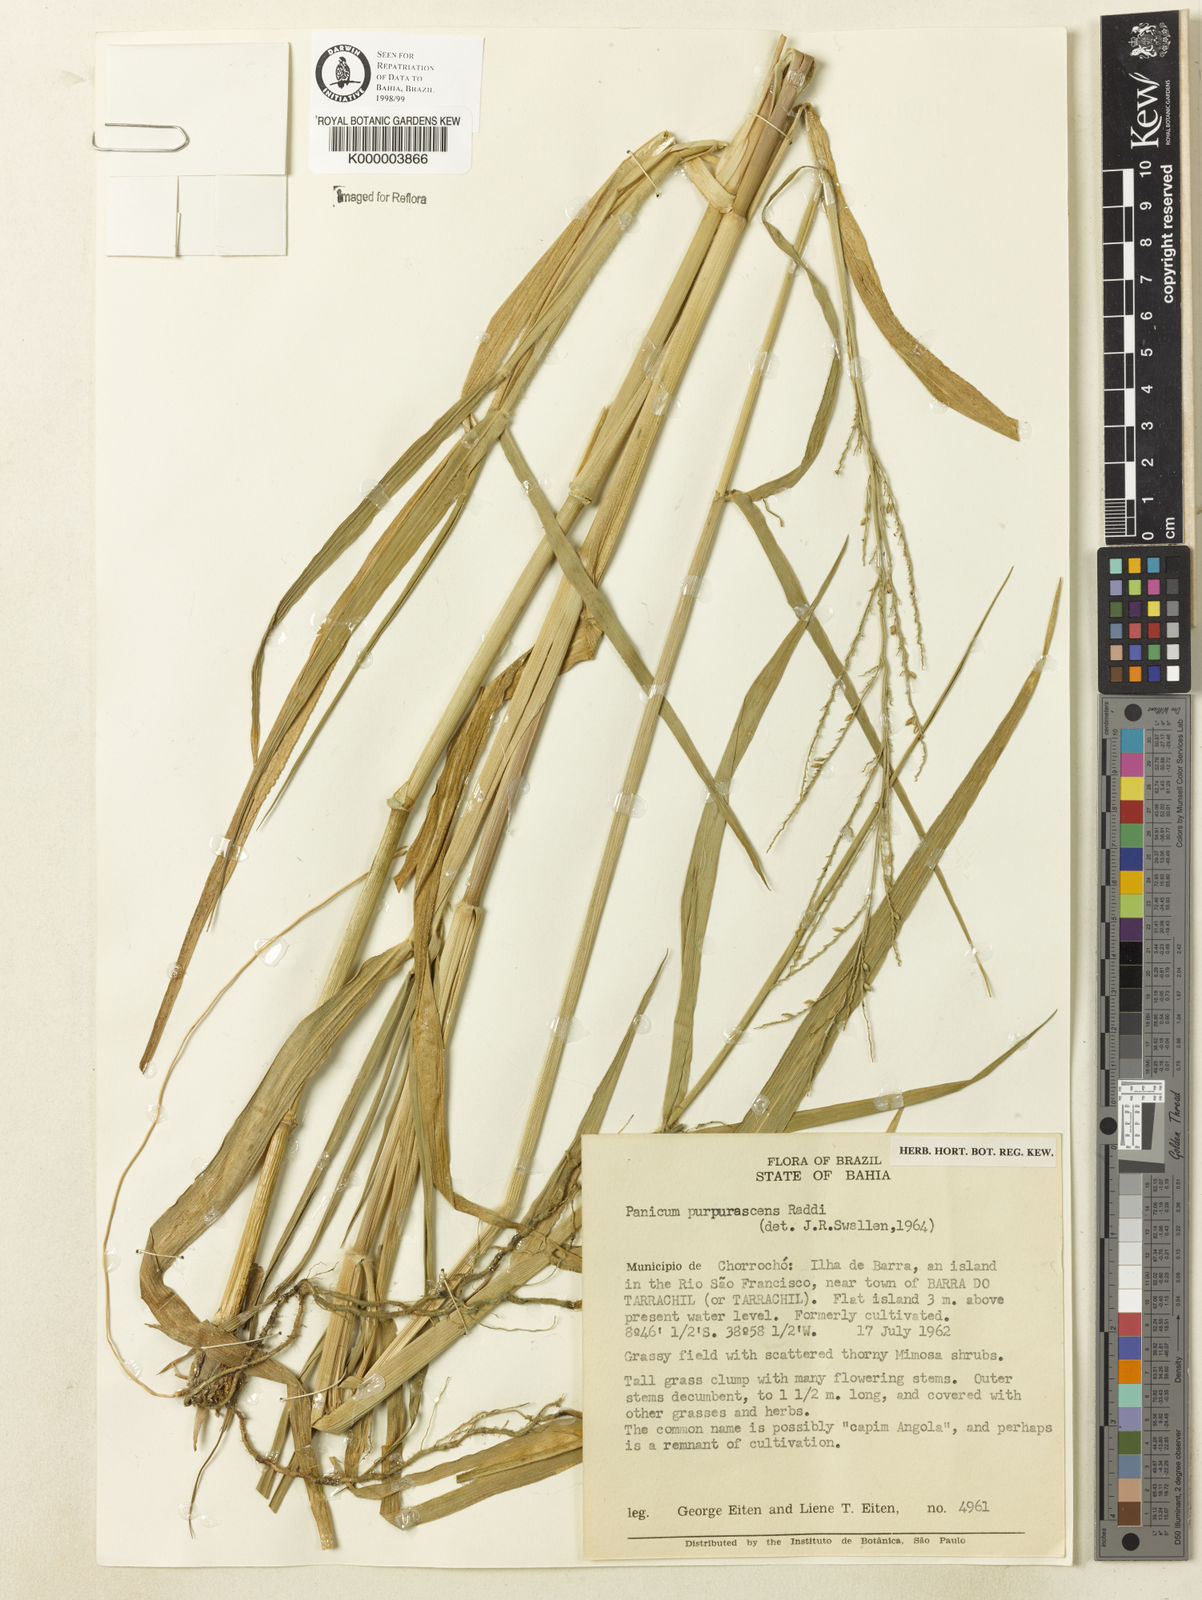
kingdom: Plantae
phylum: Tracheophyta
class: Liliopsida
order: Poales
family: Poaceae
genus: Urochloa
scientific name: Urochloa mutica
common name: Para grass
